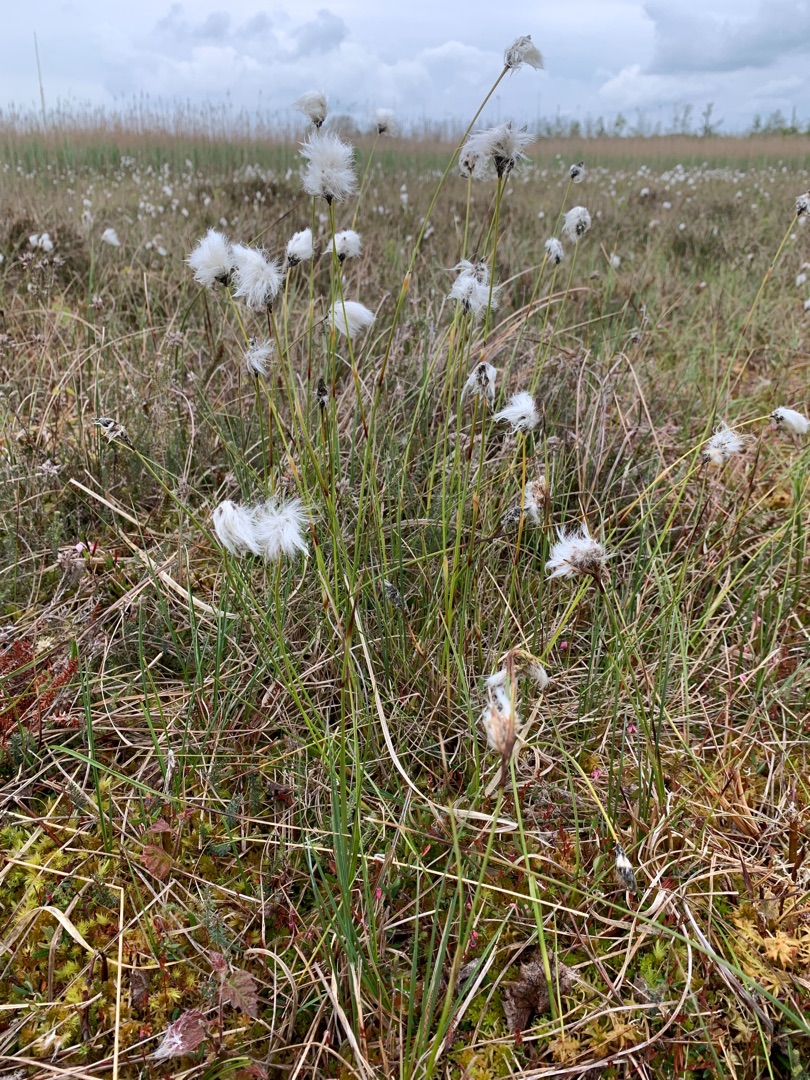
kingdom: Plantae
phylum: Tracheophyta
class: Liliopsida
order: Poales
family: Cyperaceae
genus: Eriophorum
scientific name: Eriophorum vaginatum
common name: Tue-kæruld
